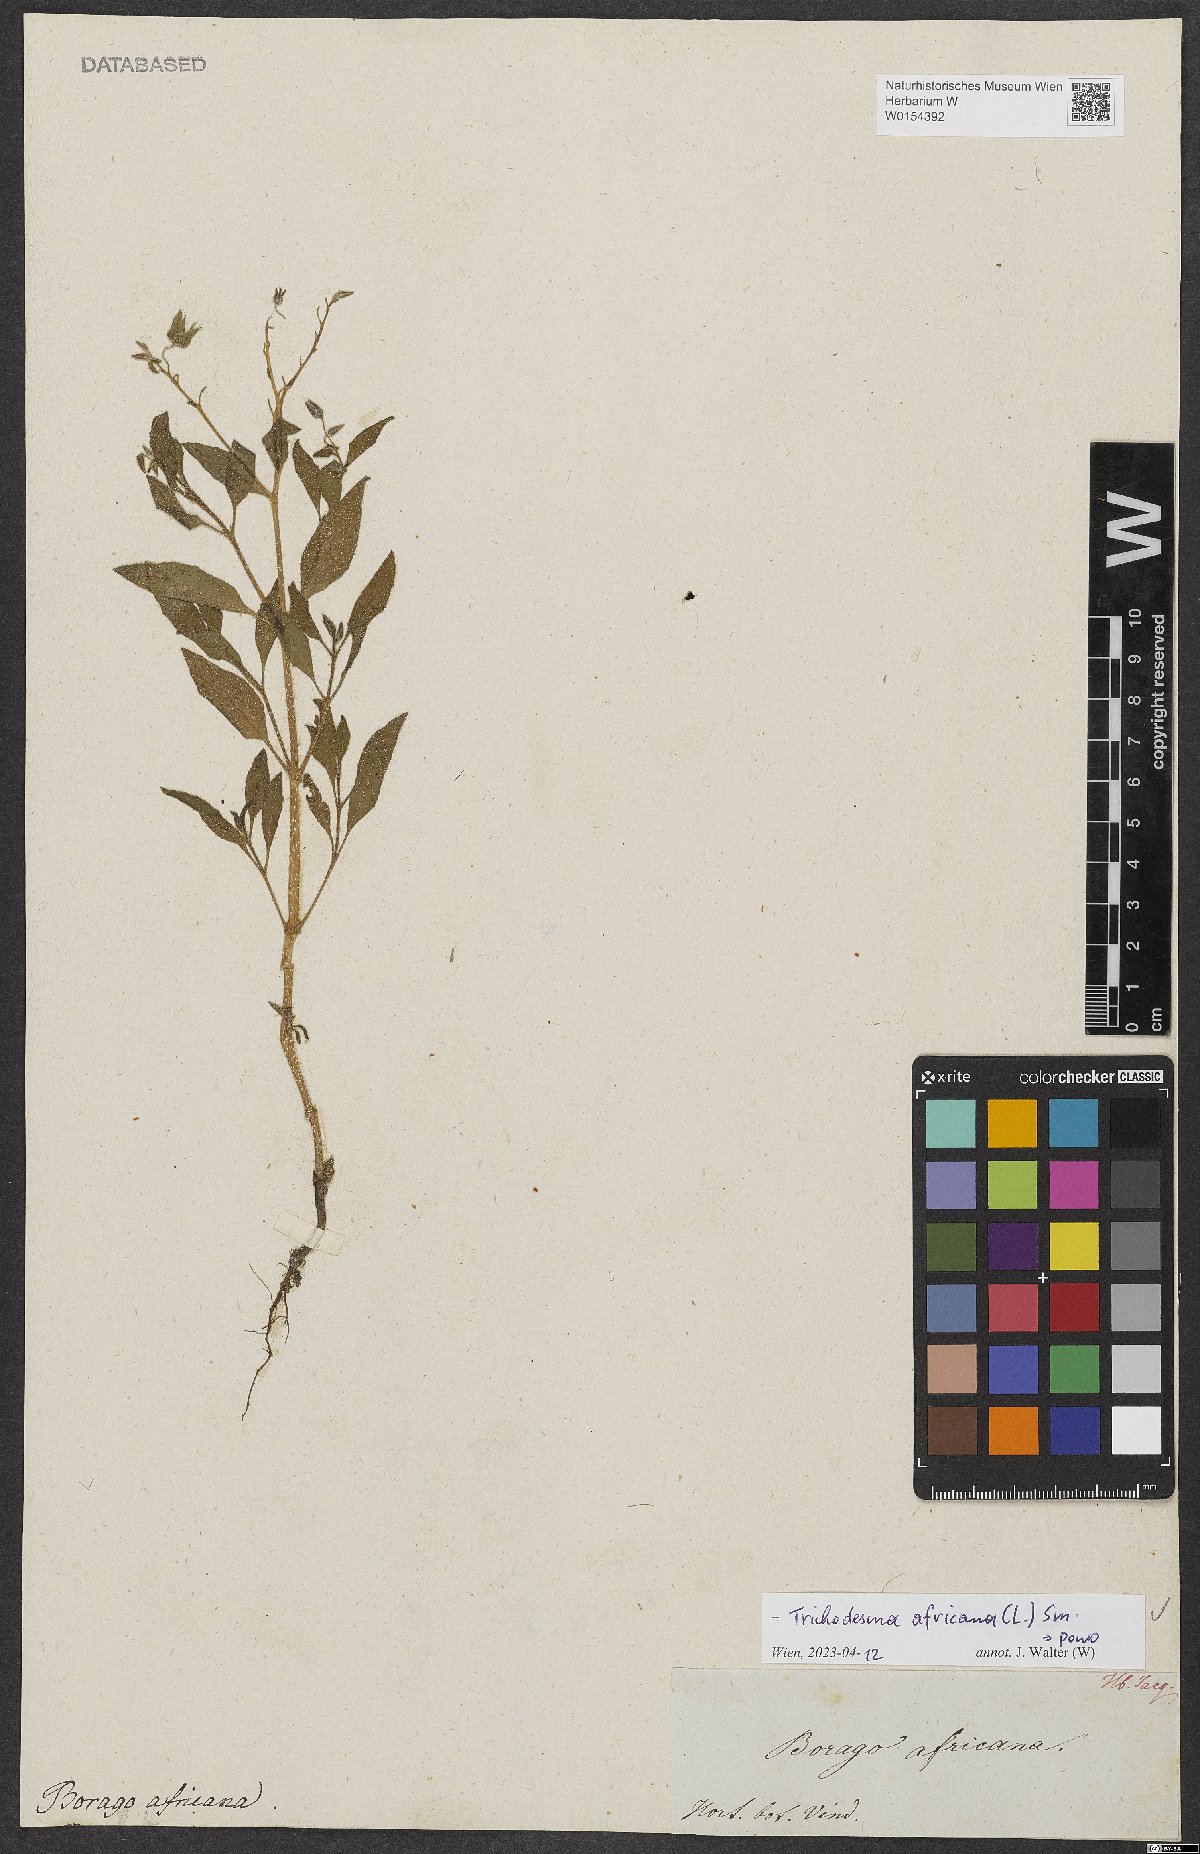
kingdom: Plantae
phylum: Tracheophyta
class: Magnoliopsida
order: Boraginales
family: Boraginaceae
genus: Trichodesma
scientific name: Trichodesma africanum
